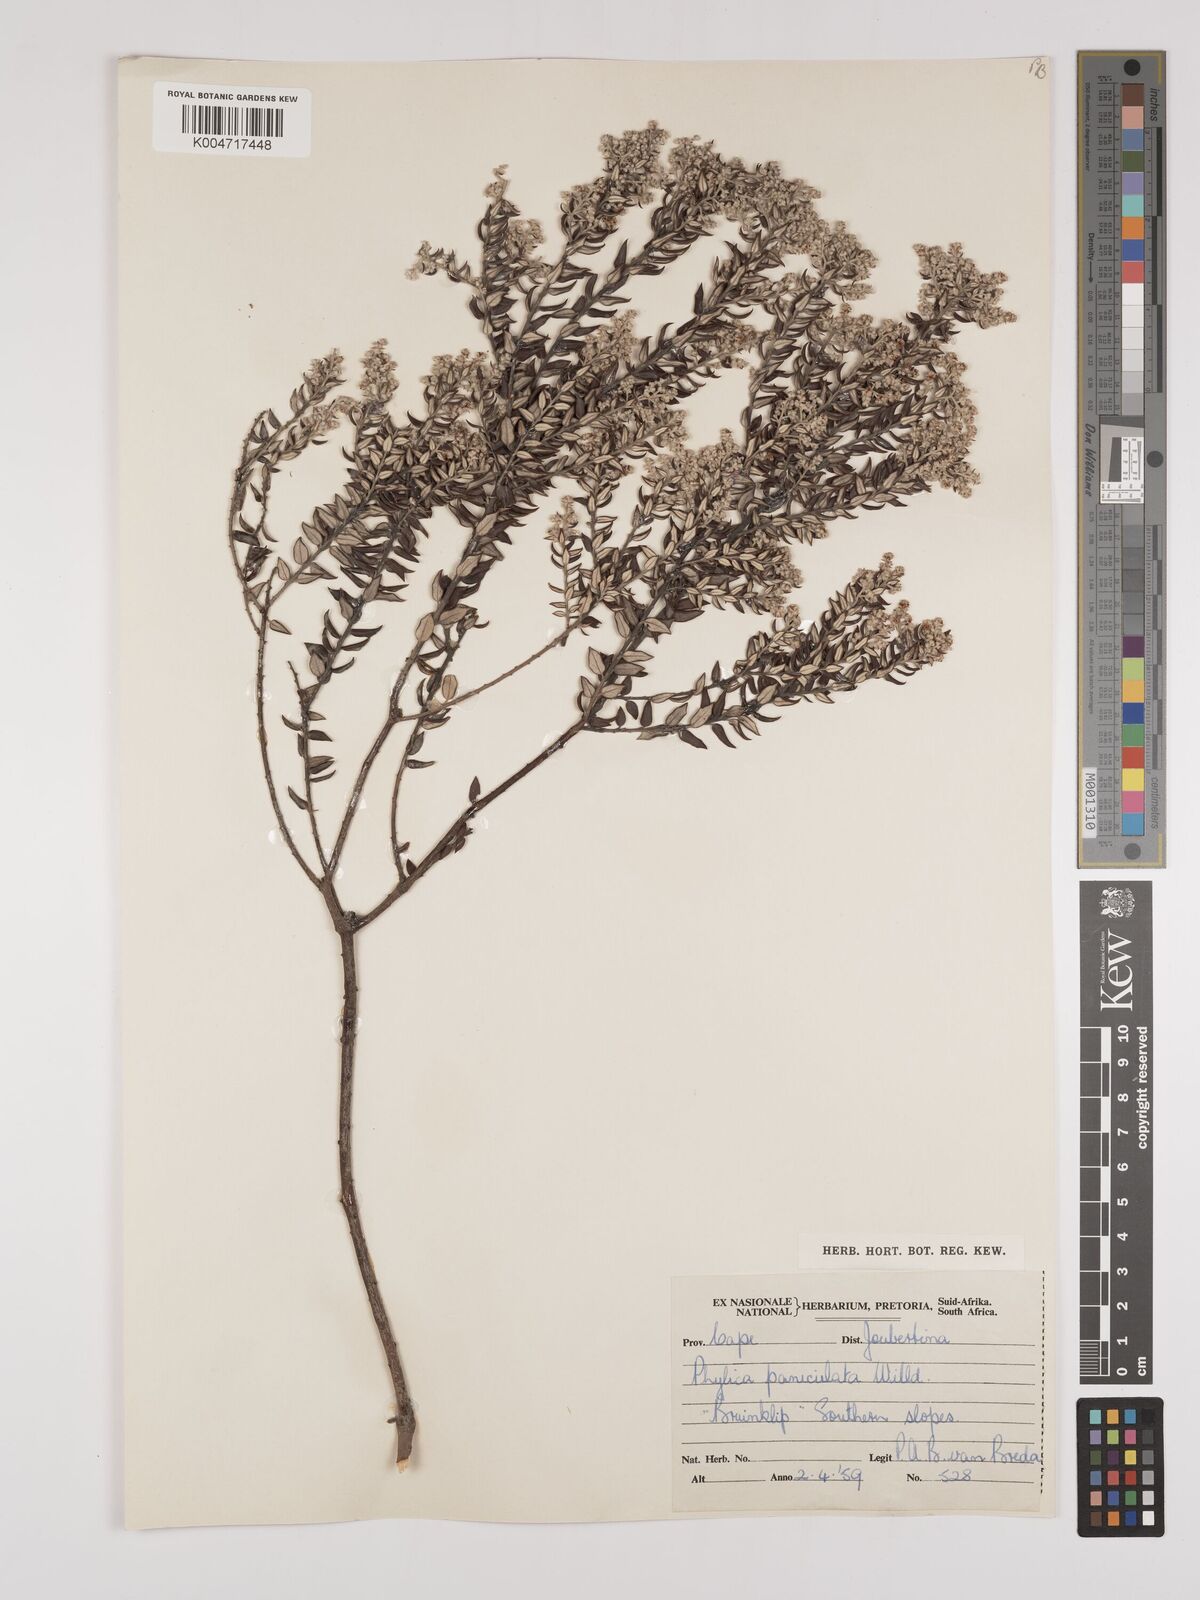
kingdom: Plantae
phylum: Tracheophyta
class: Magnoliopsida
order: Rosales
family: Rhamnaceae
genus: Phylica
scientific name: Phylica paniculata
